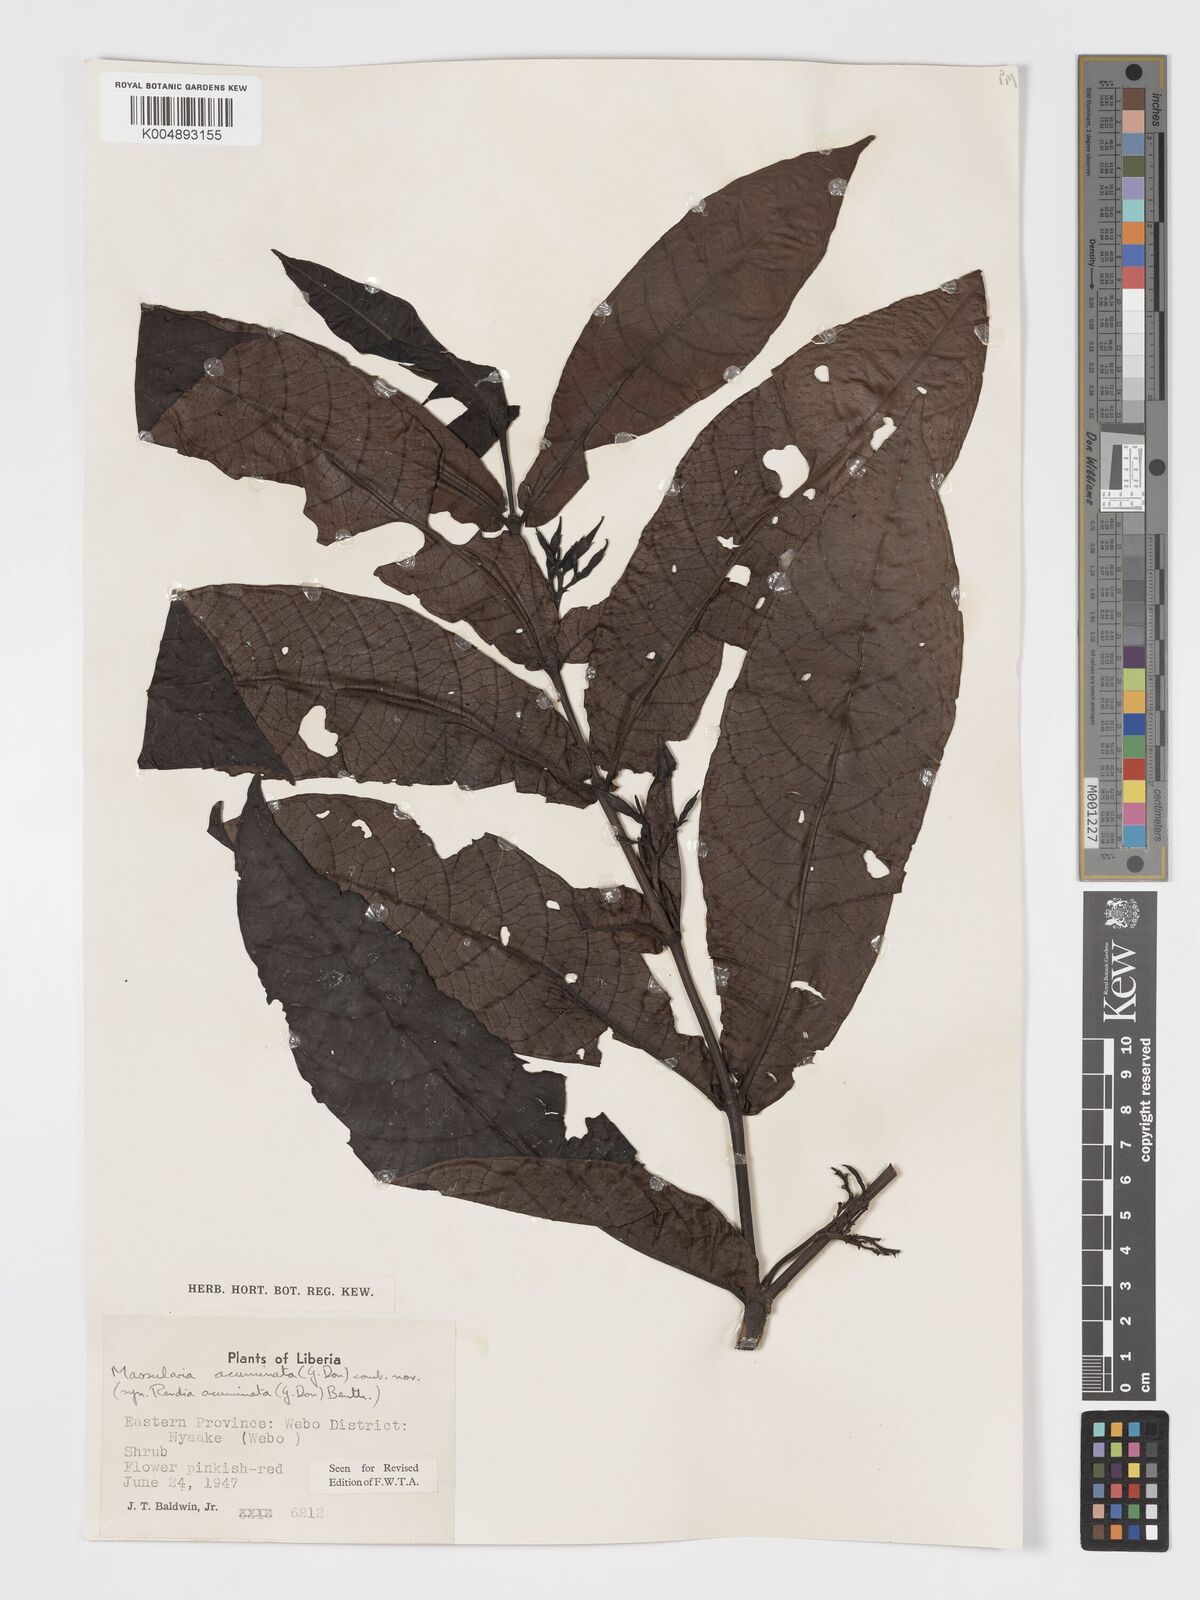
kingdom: Plantae
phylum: Tracheophyta
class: Magnoliopsida
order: Gentianales
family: Rubiaceae
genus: Massularia
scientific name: Massularia acuminata
